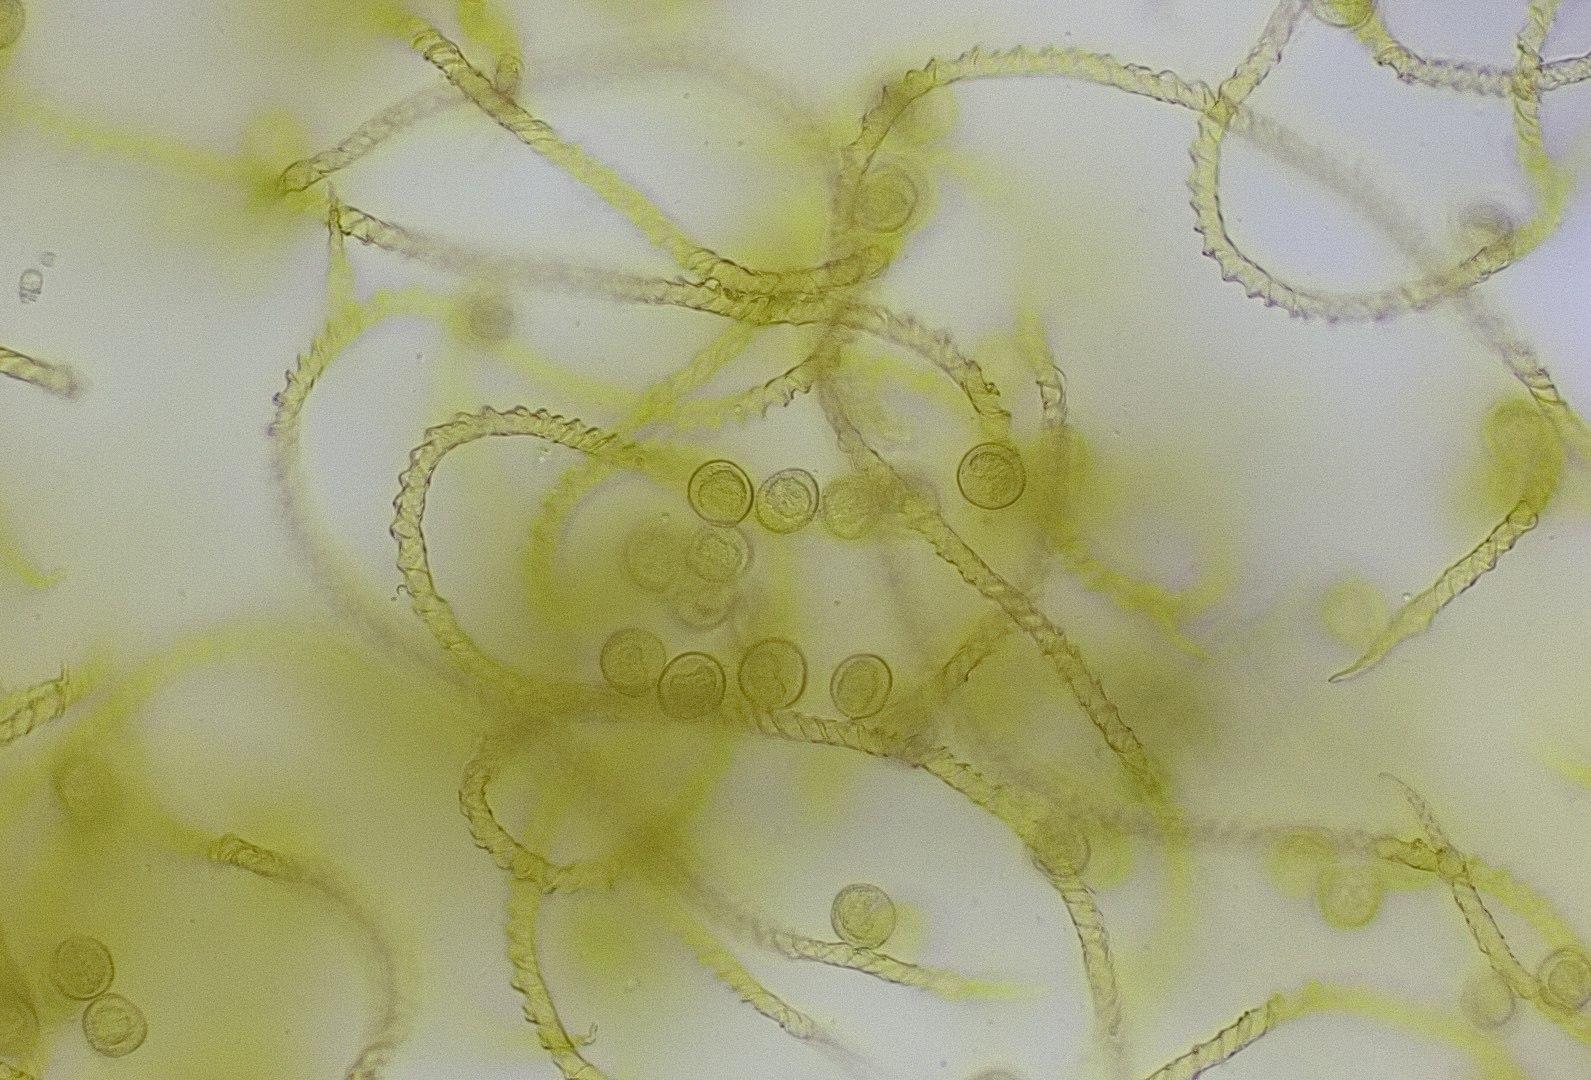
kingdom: Protozoa
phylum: Mycetozoa
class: Myxomycetes
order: Trichiales
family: Trichiaceae
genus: Trichia
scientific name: Trichia varia
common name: foranderlig hårbold
